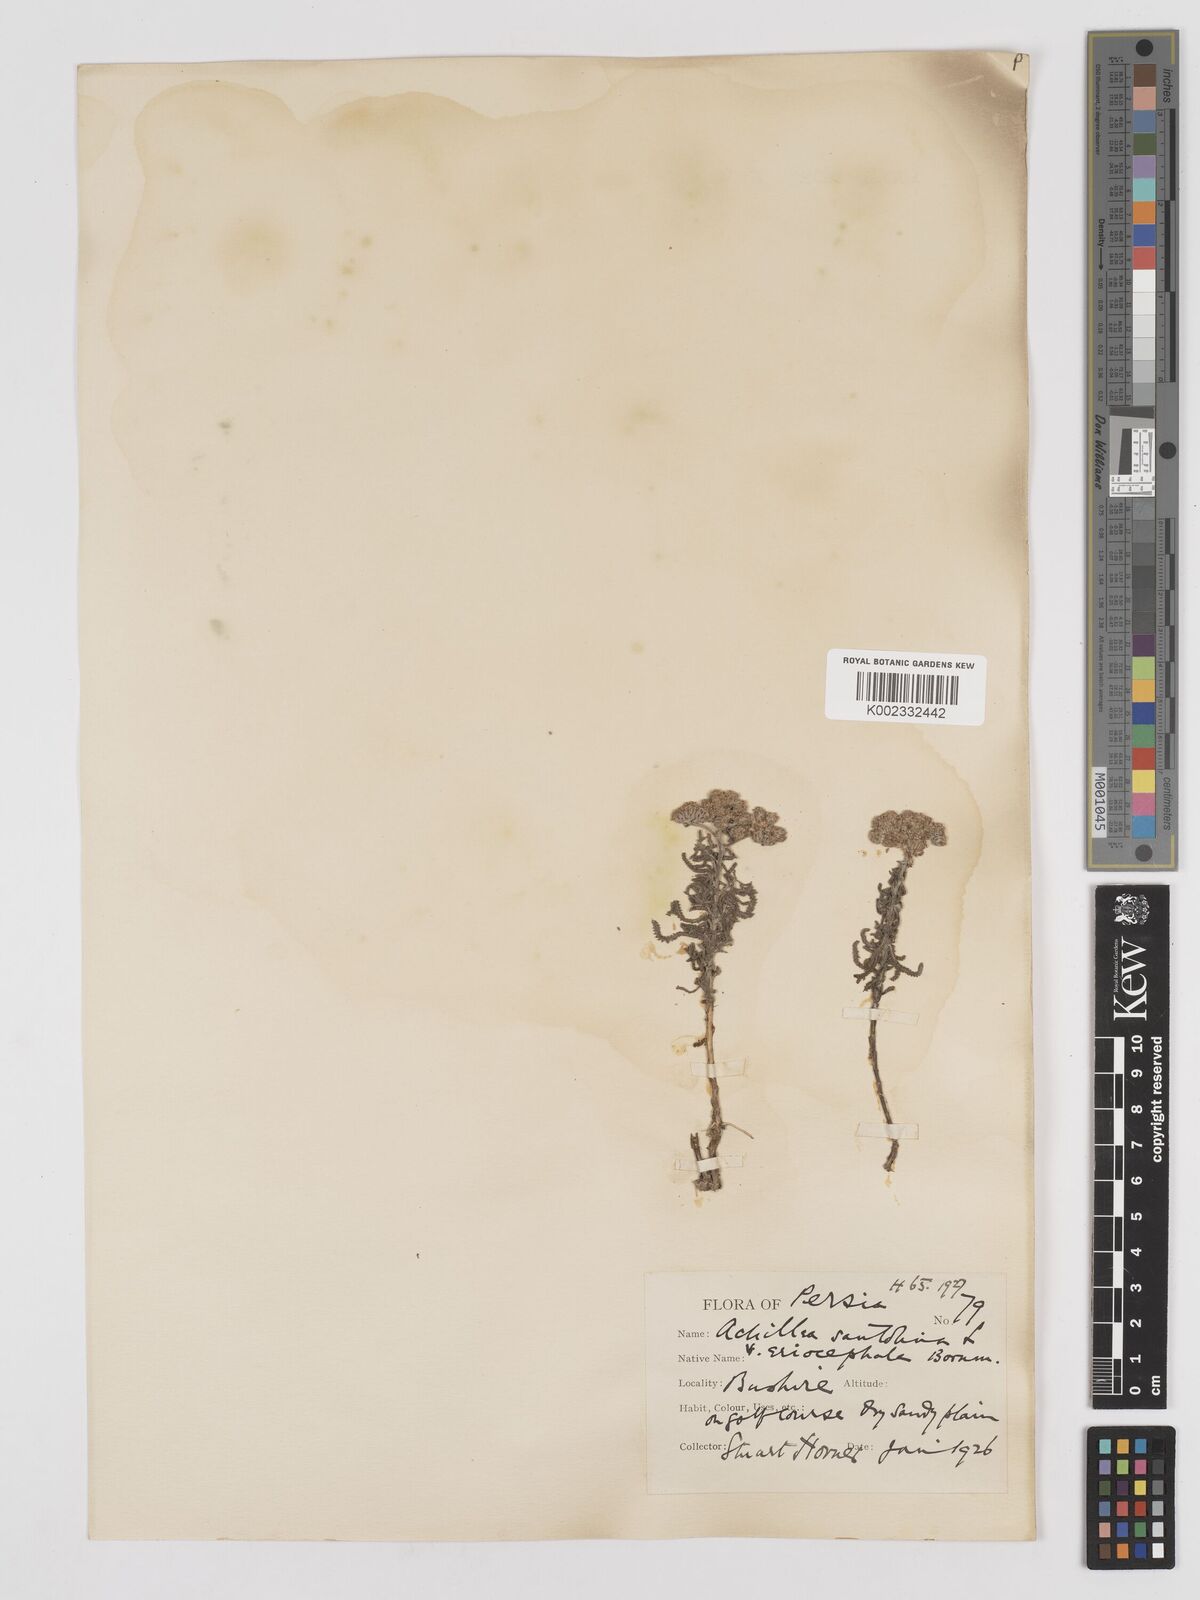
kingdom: Plantae
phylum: Tracheophyta
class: Magnoliopsida
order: Asterales
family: Asteraceae
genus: Achillea
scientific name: Achillea tenuifolia
